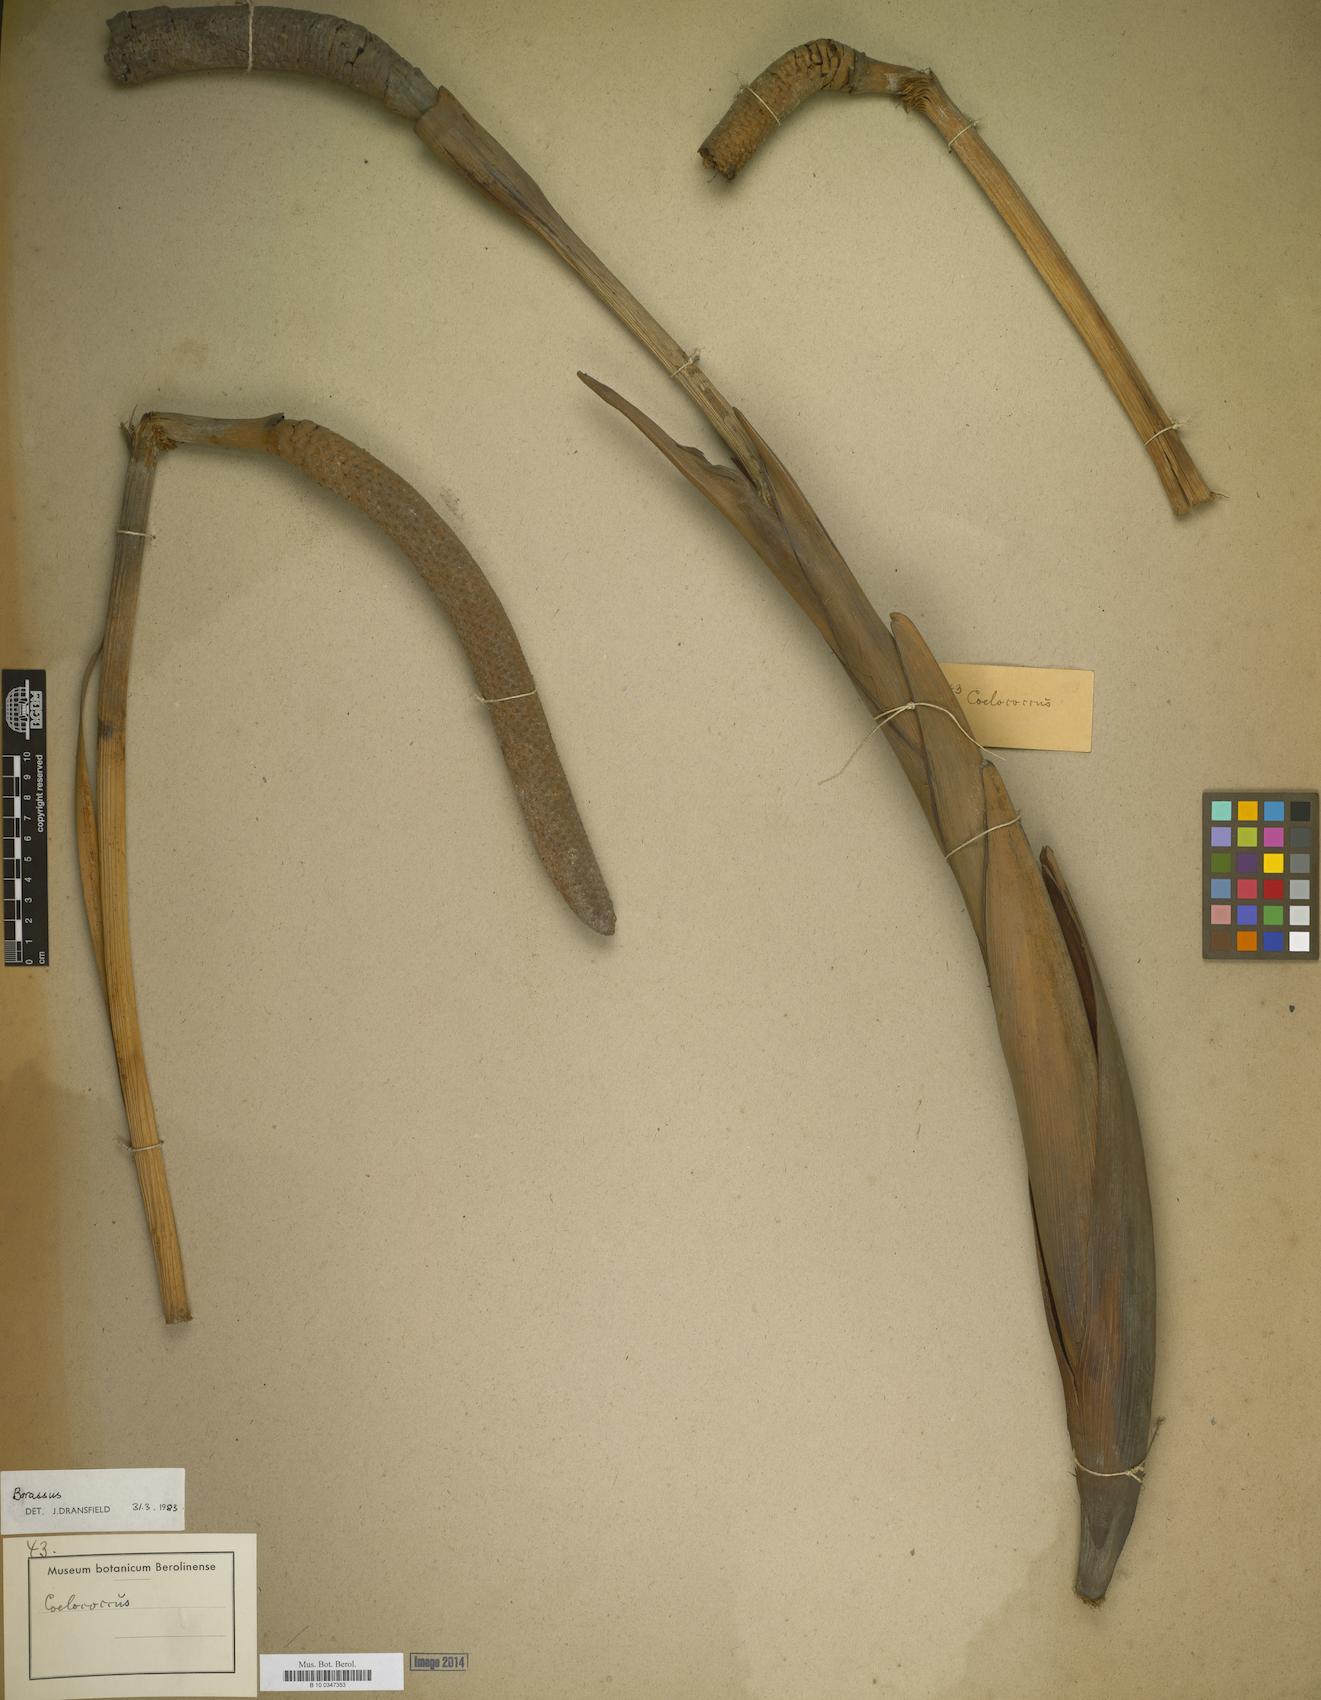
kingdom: Plantae
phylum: Tracheophyta
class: Liliopsida
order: Arecales
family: Arecaceae
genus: Metroxylon
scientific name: Metroxylon
